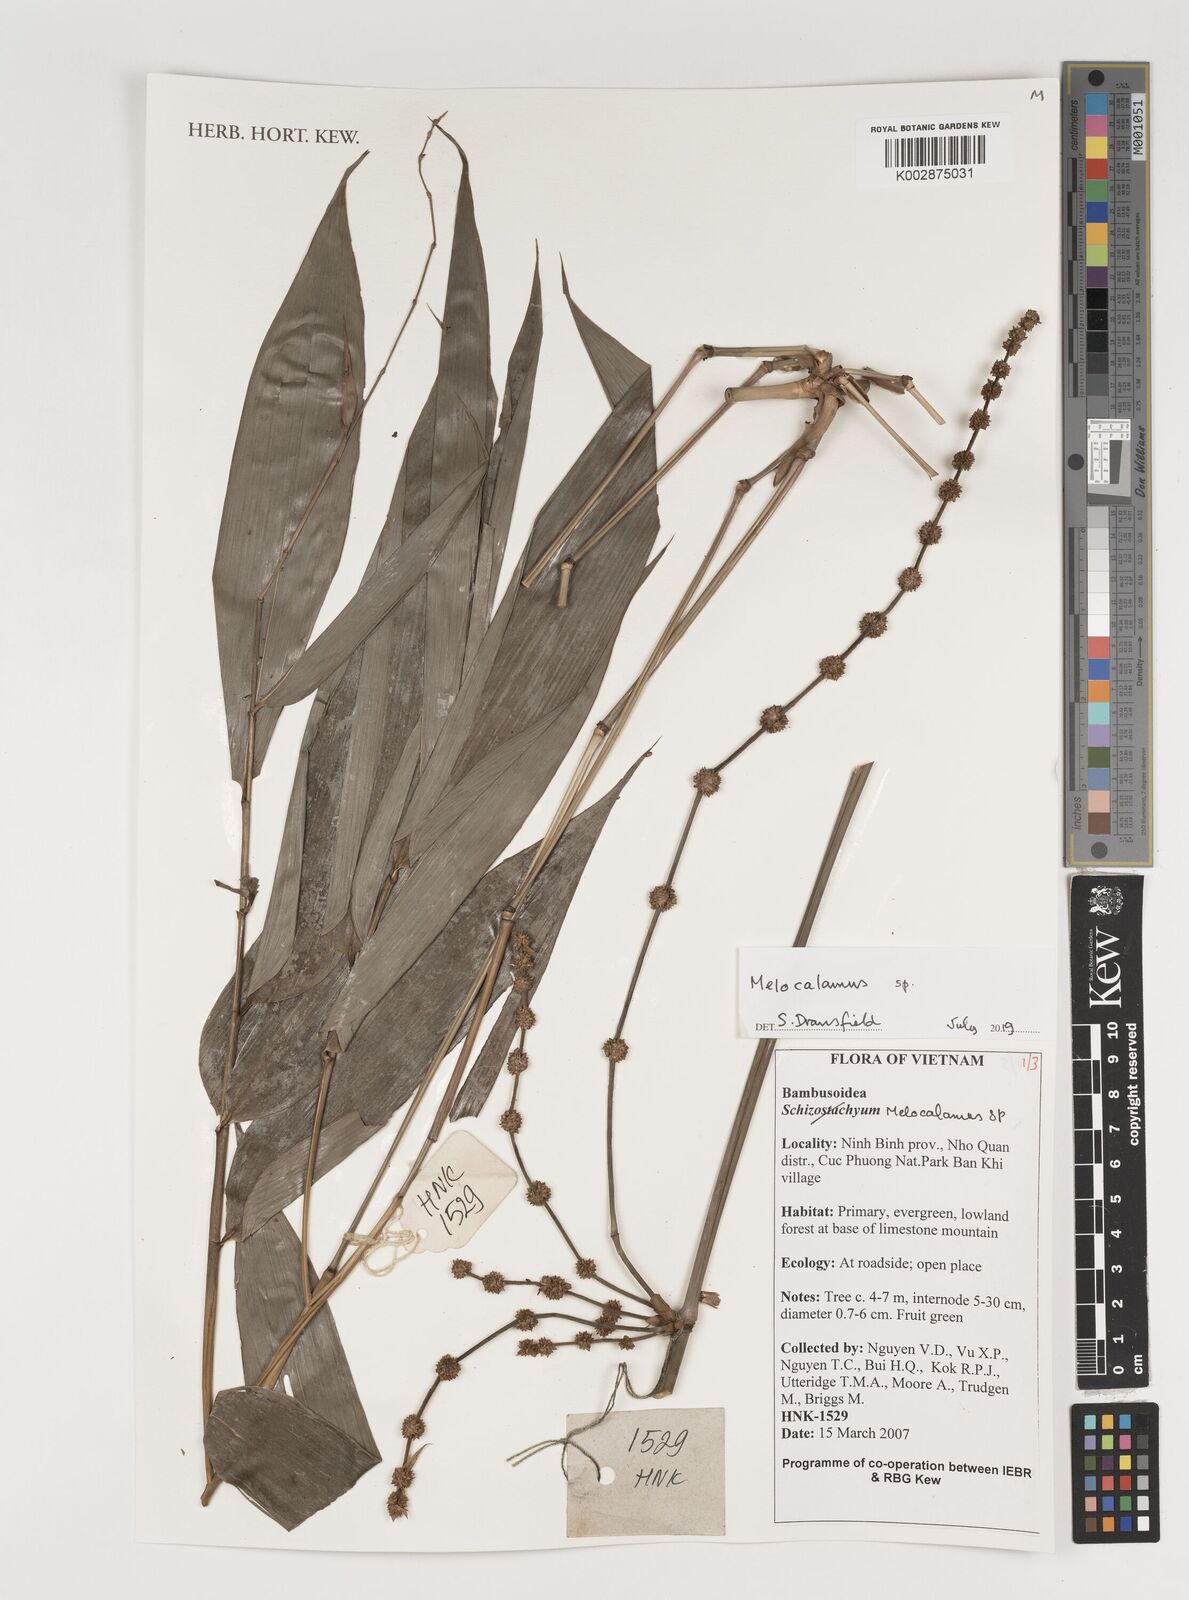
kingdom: Plantae
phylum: Tracheophyta
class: Liliopsida
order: Poales
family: Poaceae
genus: Melocalamus
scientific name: Melocalamus
